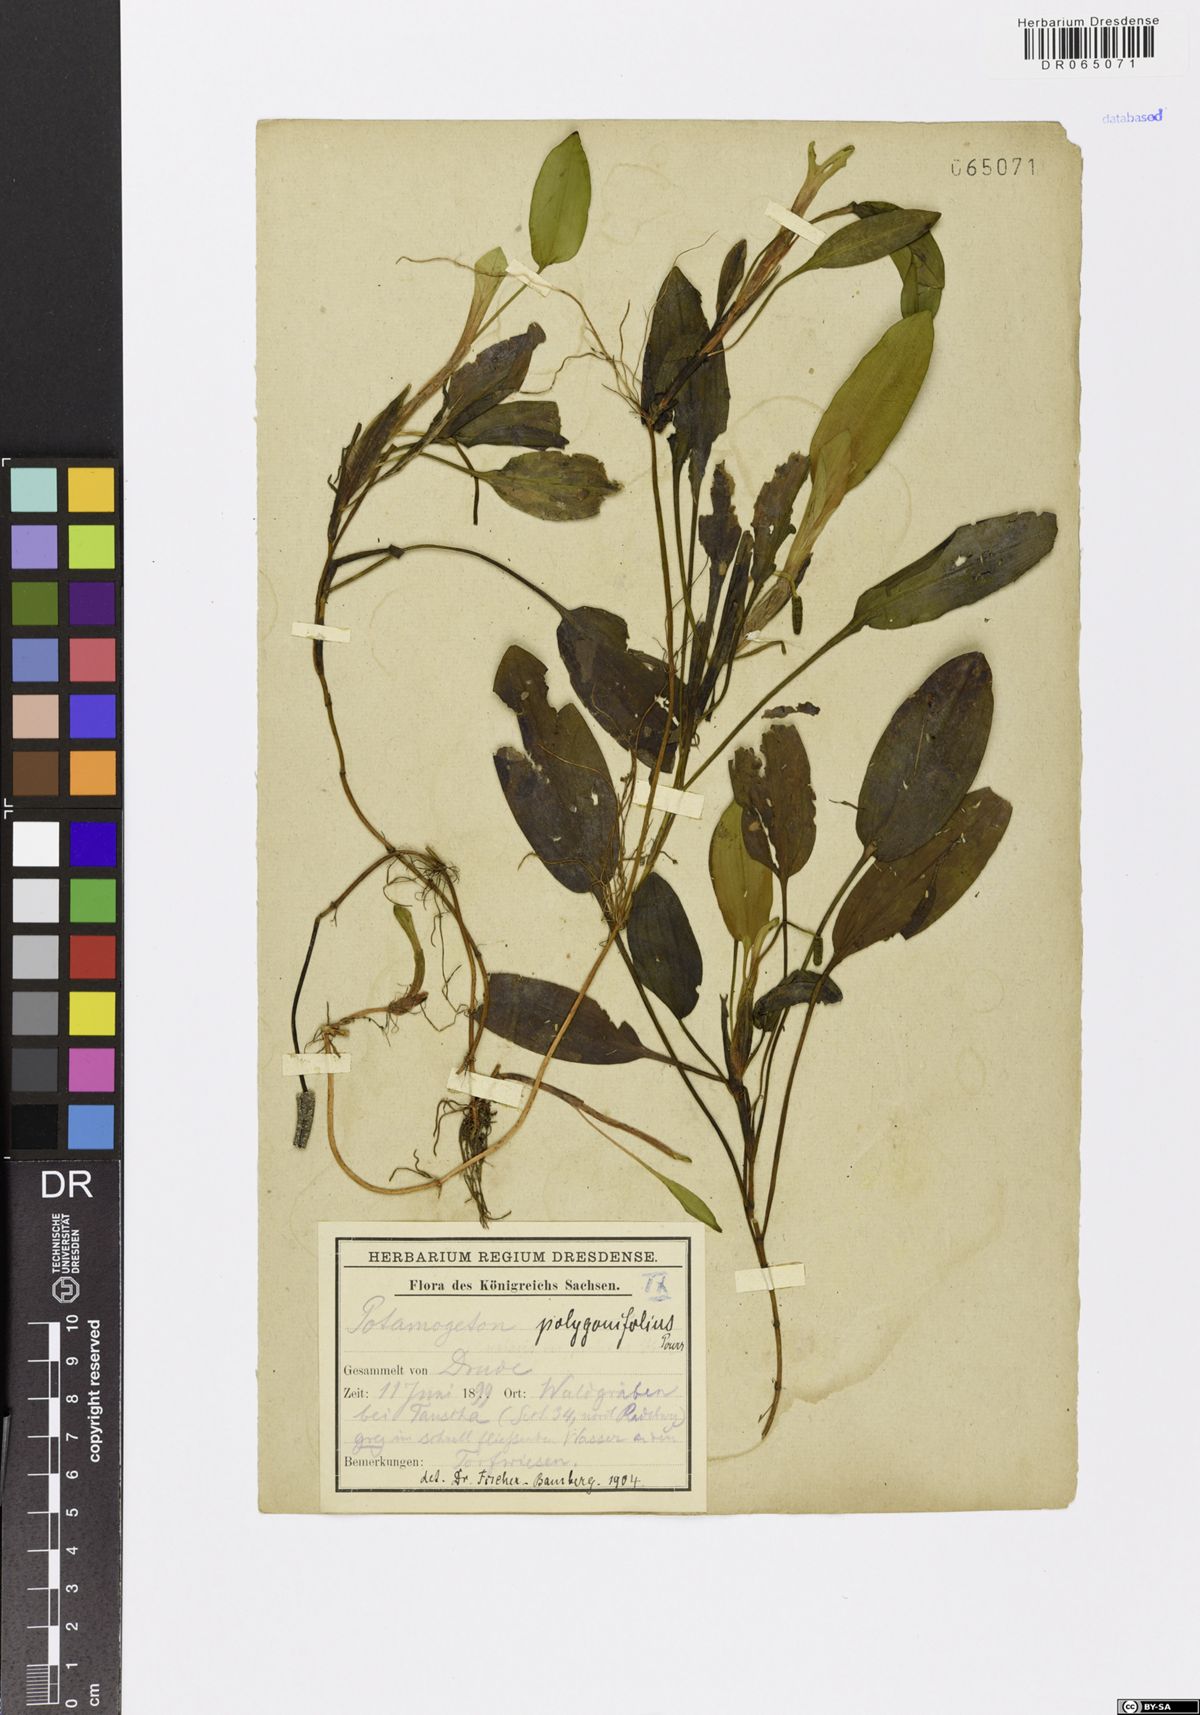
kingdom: Plantae
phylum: Tracheophyta
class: Liliopsida
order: Alismatales
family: Potamogetonaceae
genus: Potamogeton
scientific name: Potamogeton polygonifolius
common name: Bog pondweed
